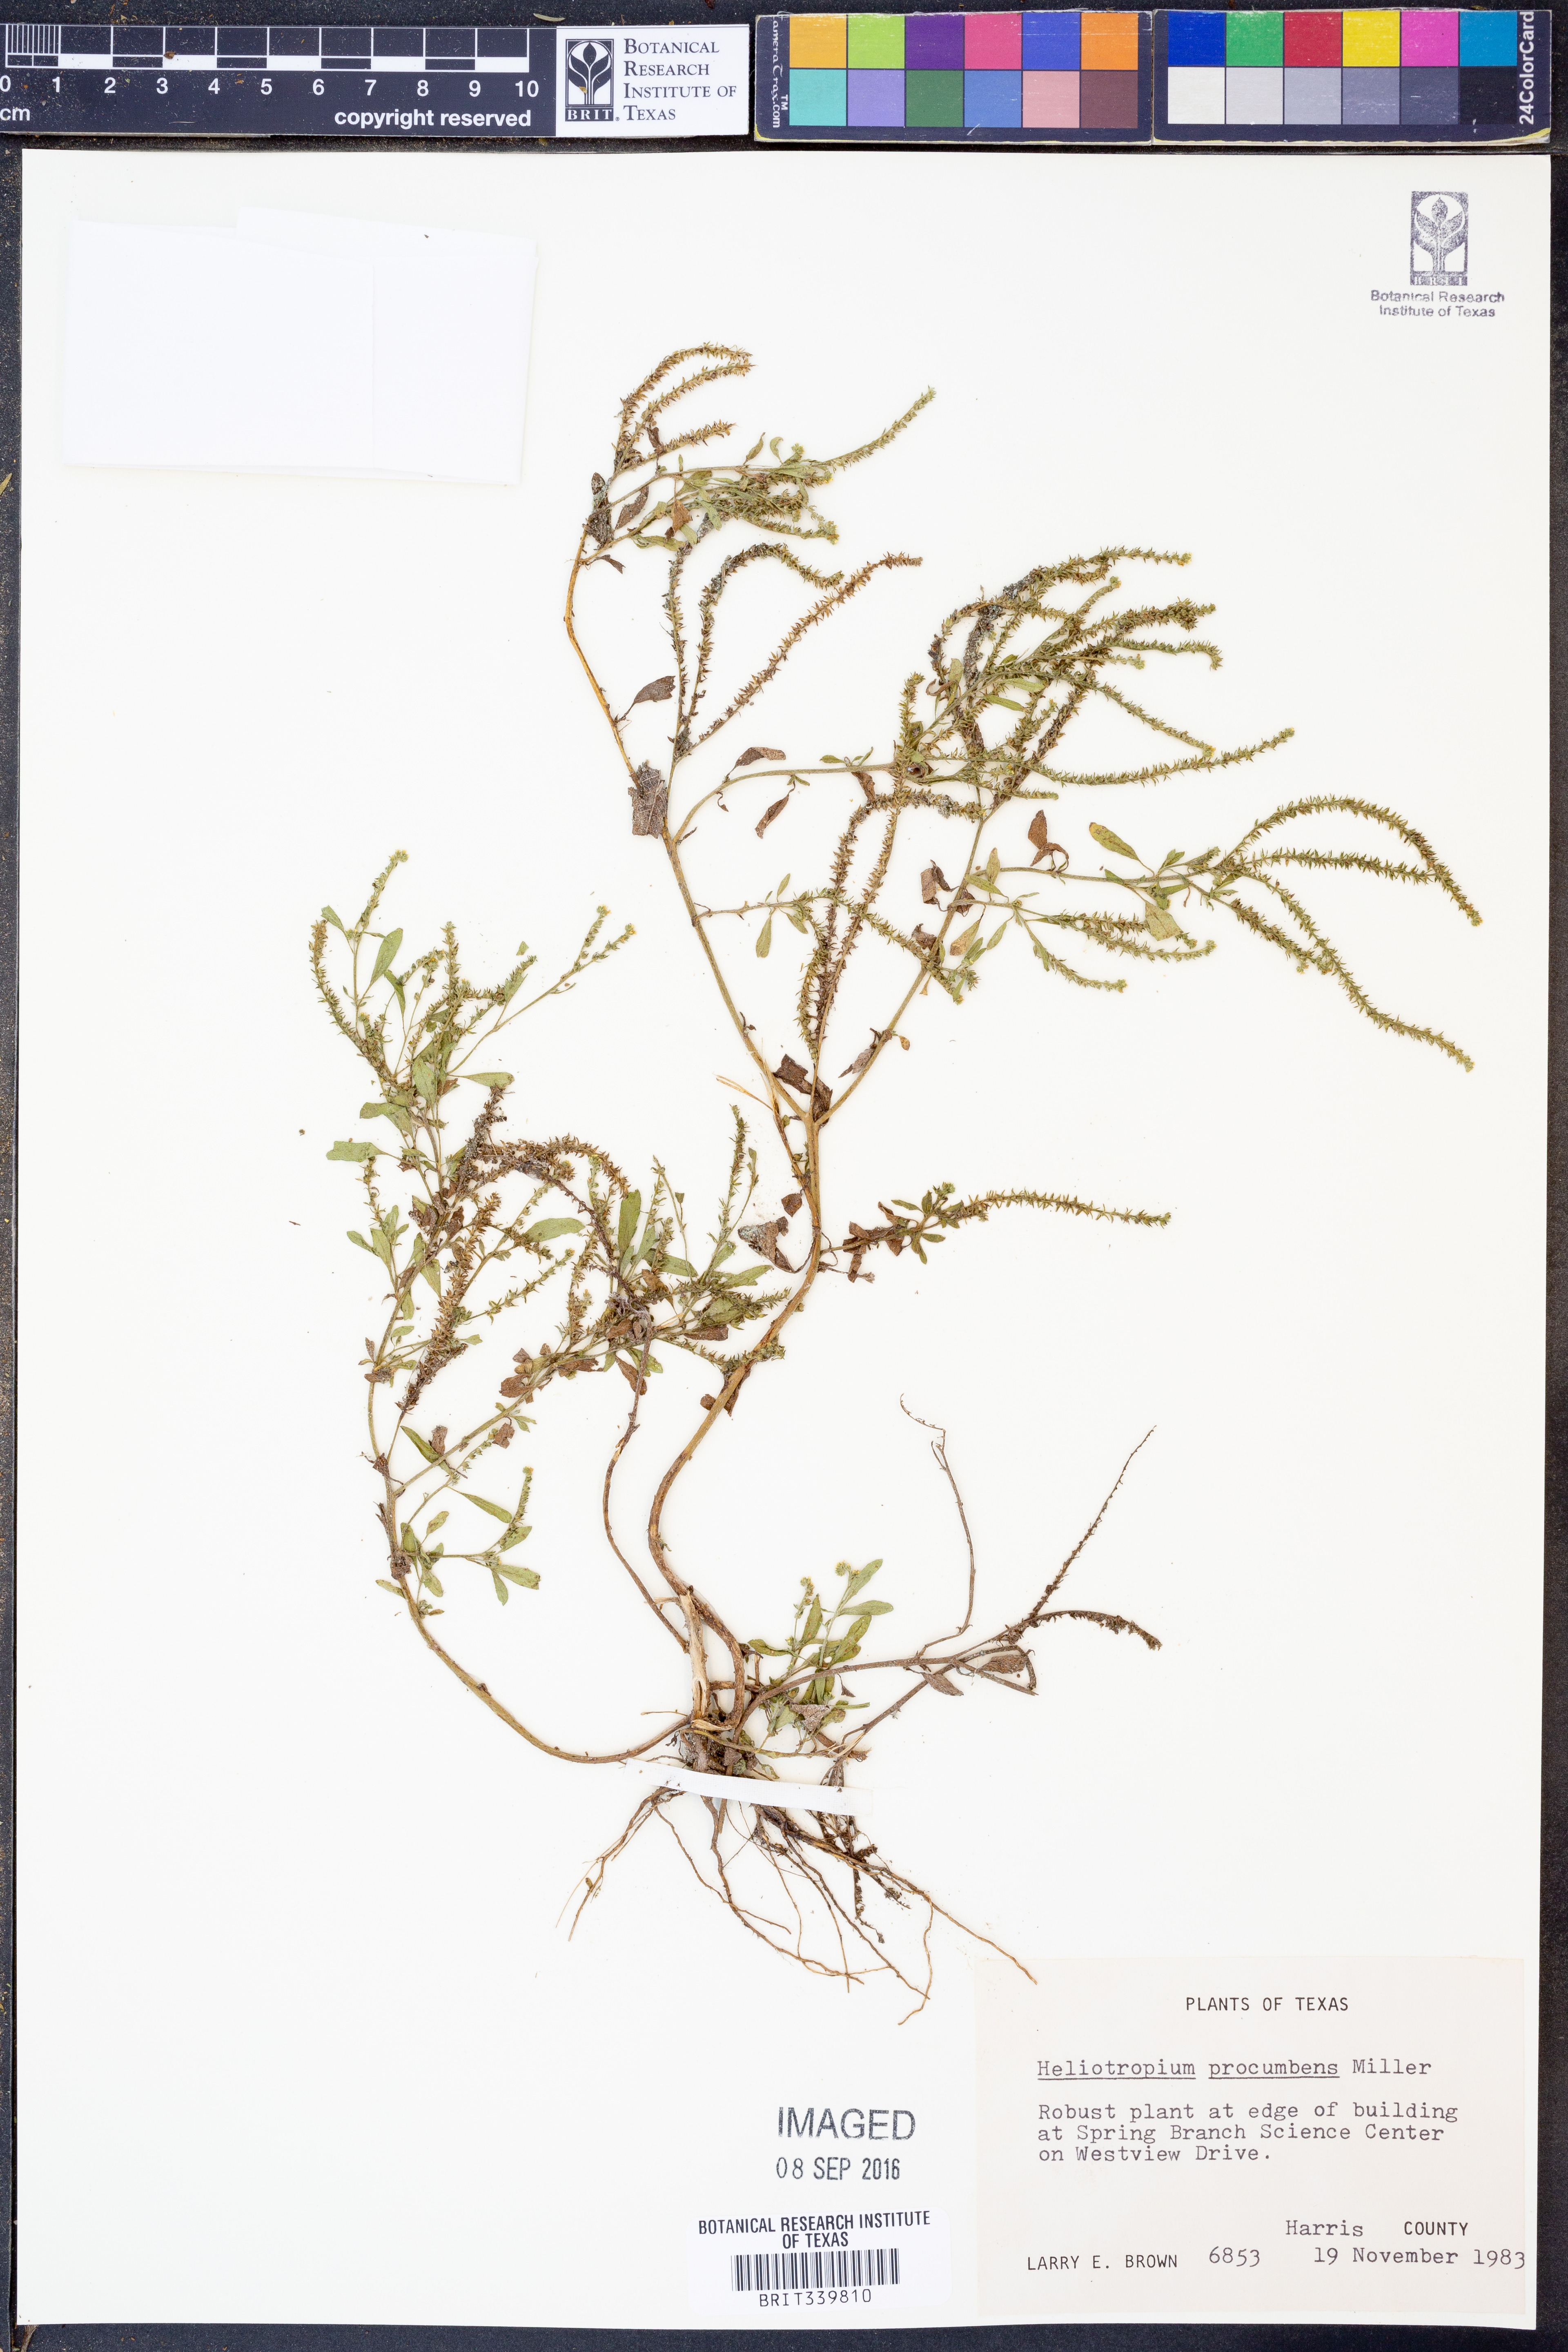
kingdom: Plantae
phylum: Tracheophyta
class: Magnoliopsida
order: Boraginales
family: Heliotropiaceae
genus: Euploca
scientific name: Euploca procumbens
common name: Fourspike heliotrope
